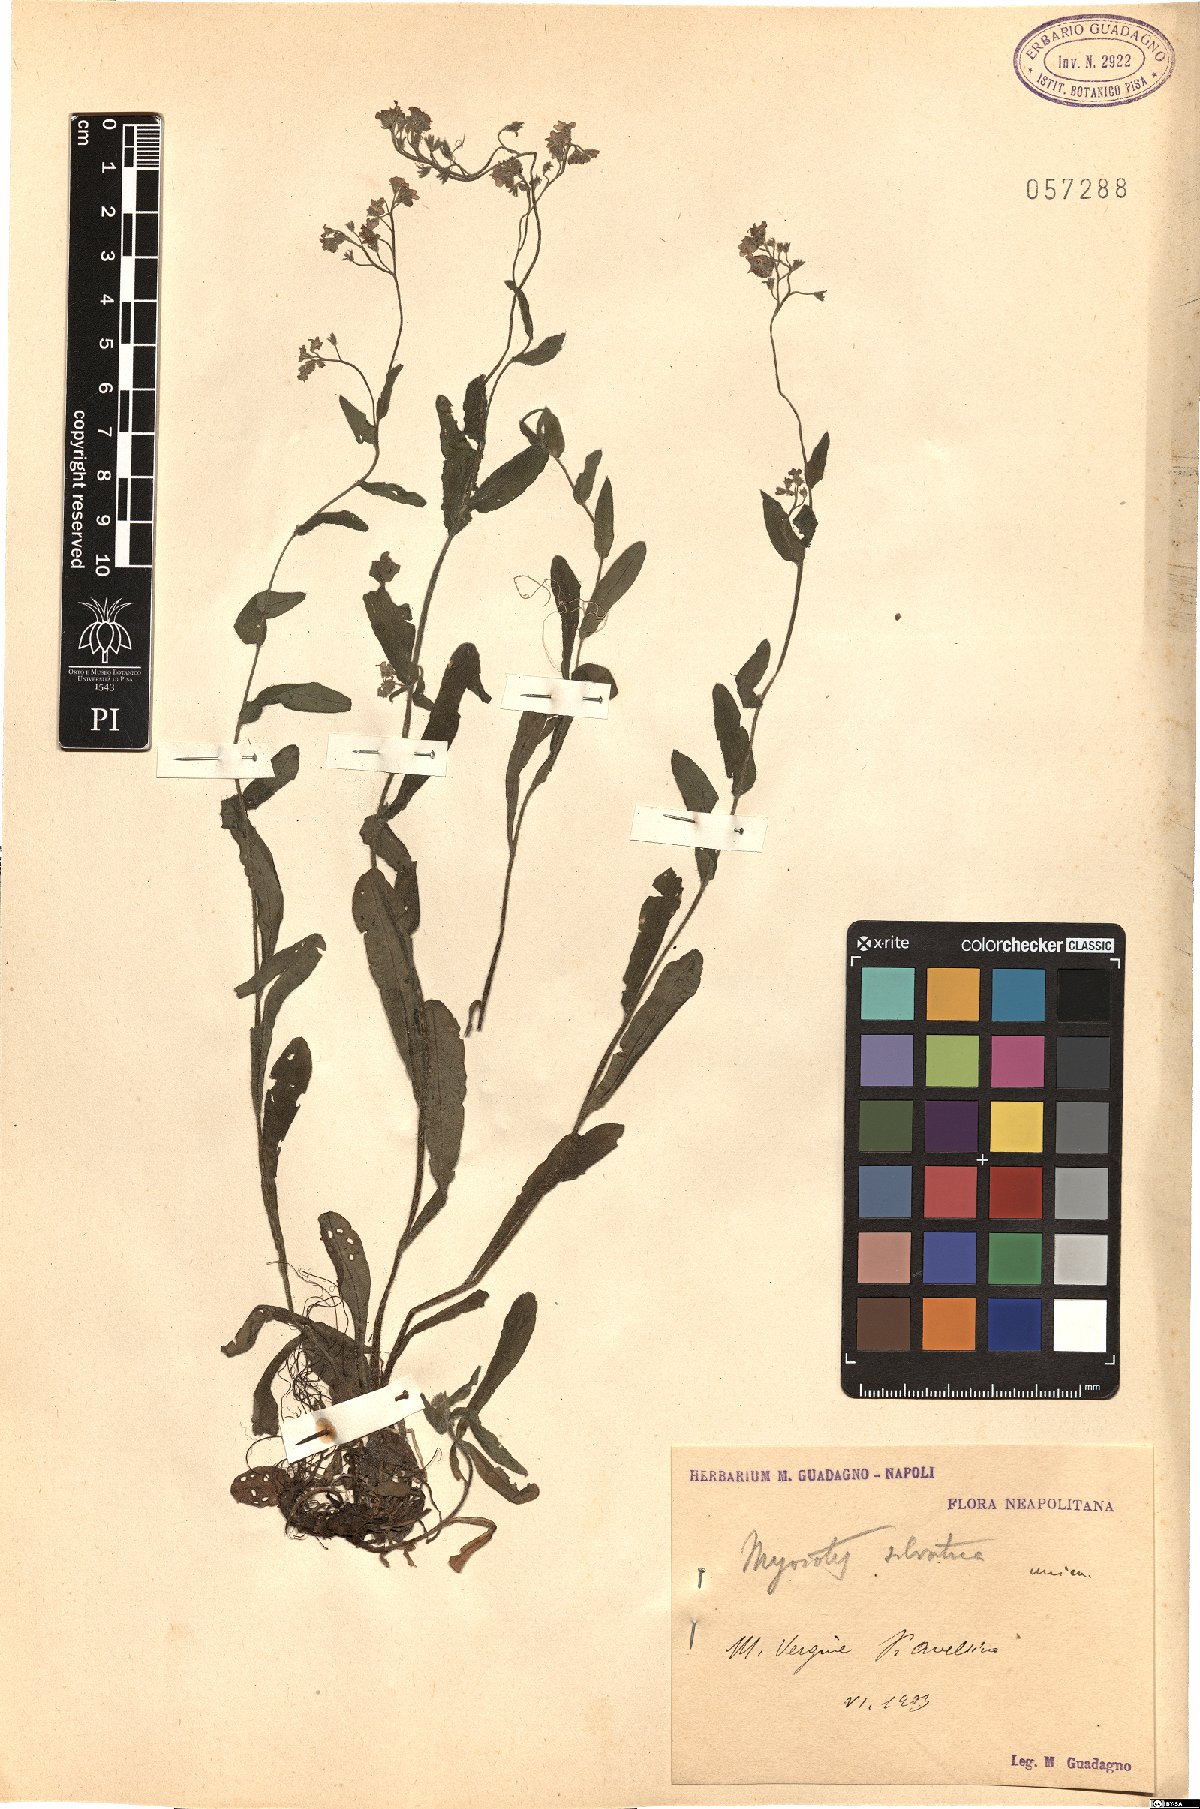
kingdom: Plantae
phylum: Tracheophyta
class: Magnoliopsida
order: Boraginales
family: Boraginaceae
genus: Myosotis
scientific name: Myosotis sylvatica
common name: Wood forget-me-not
